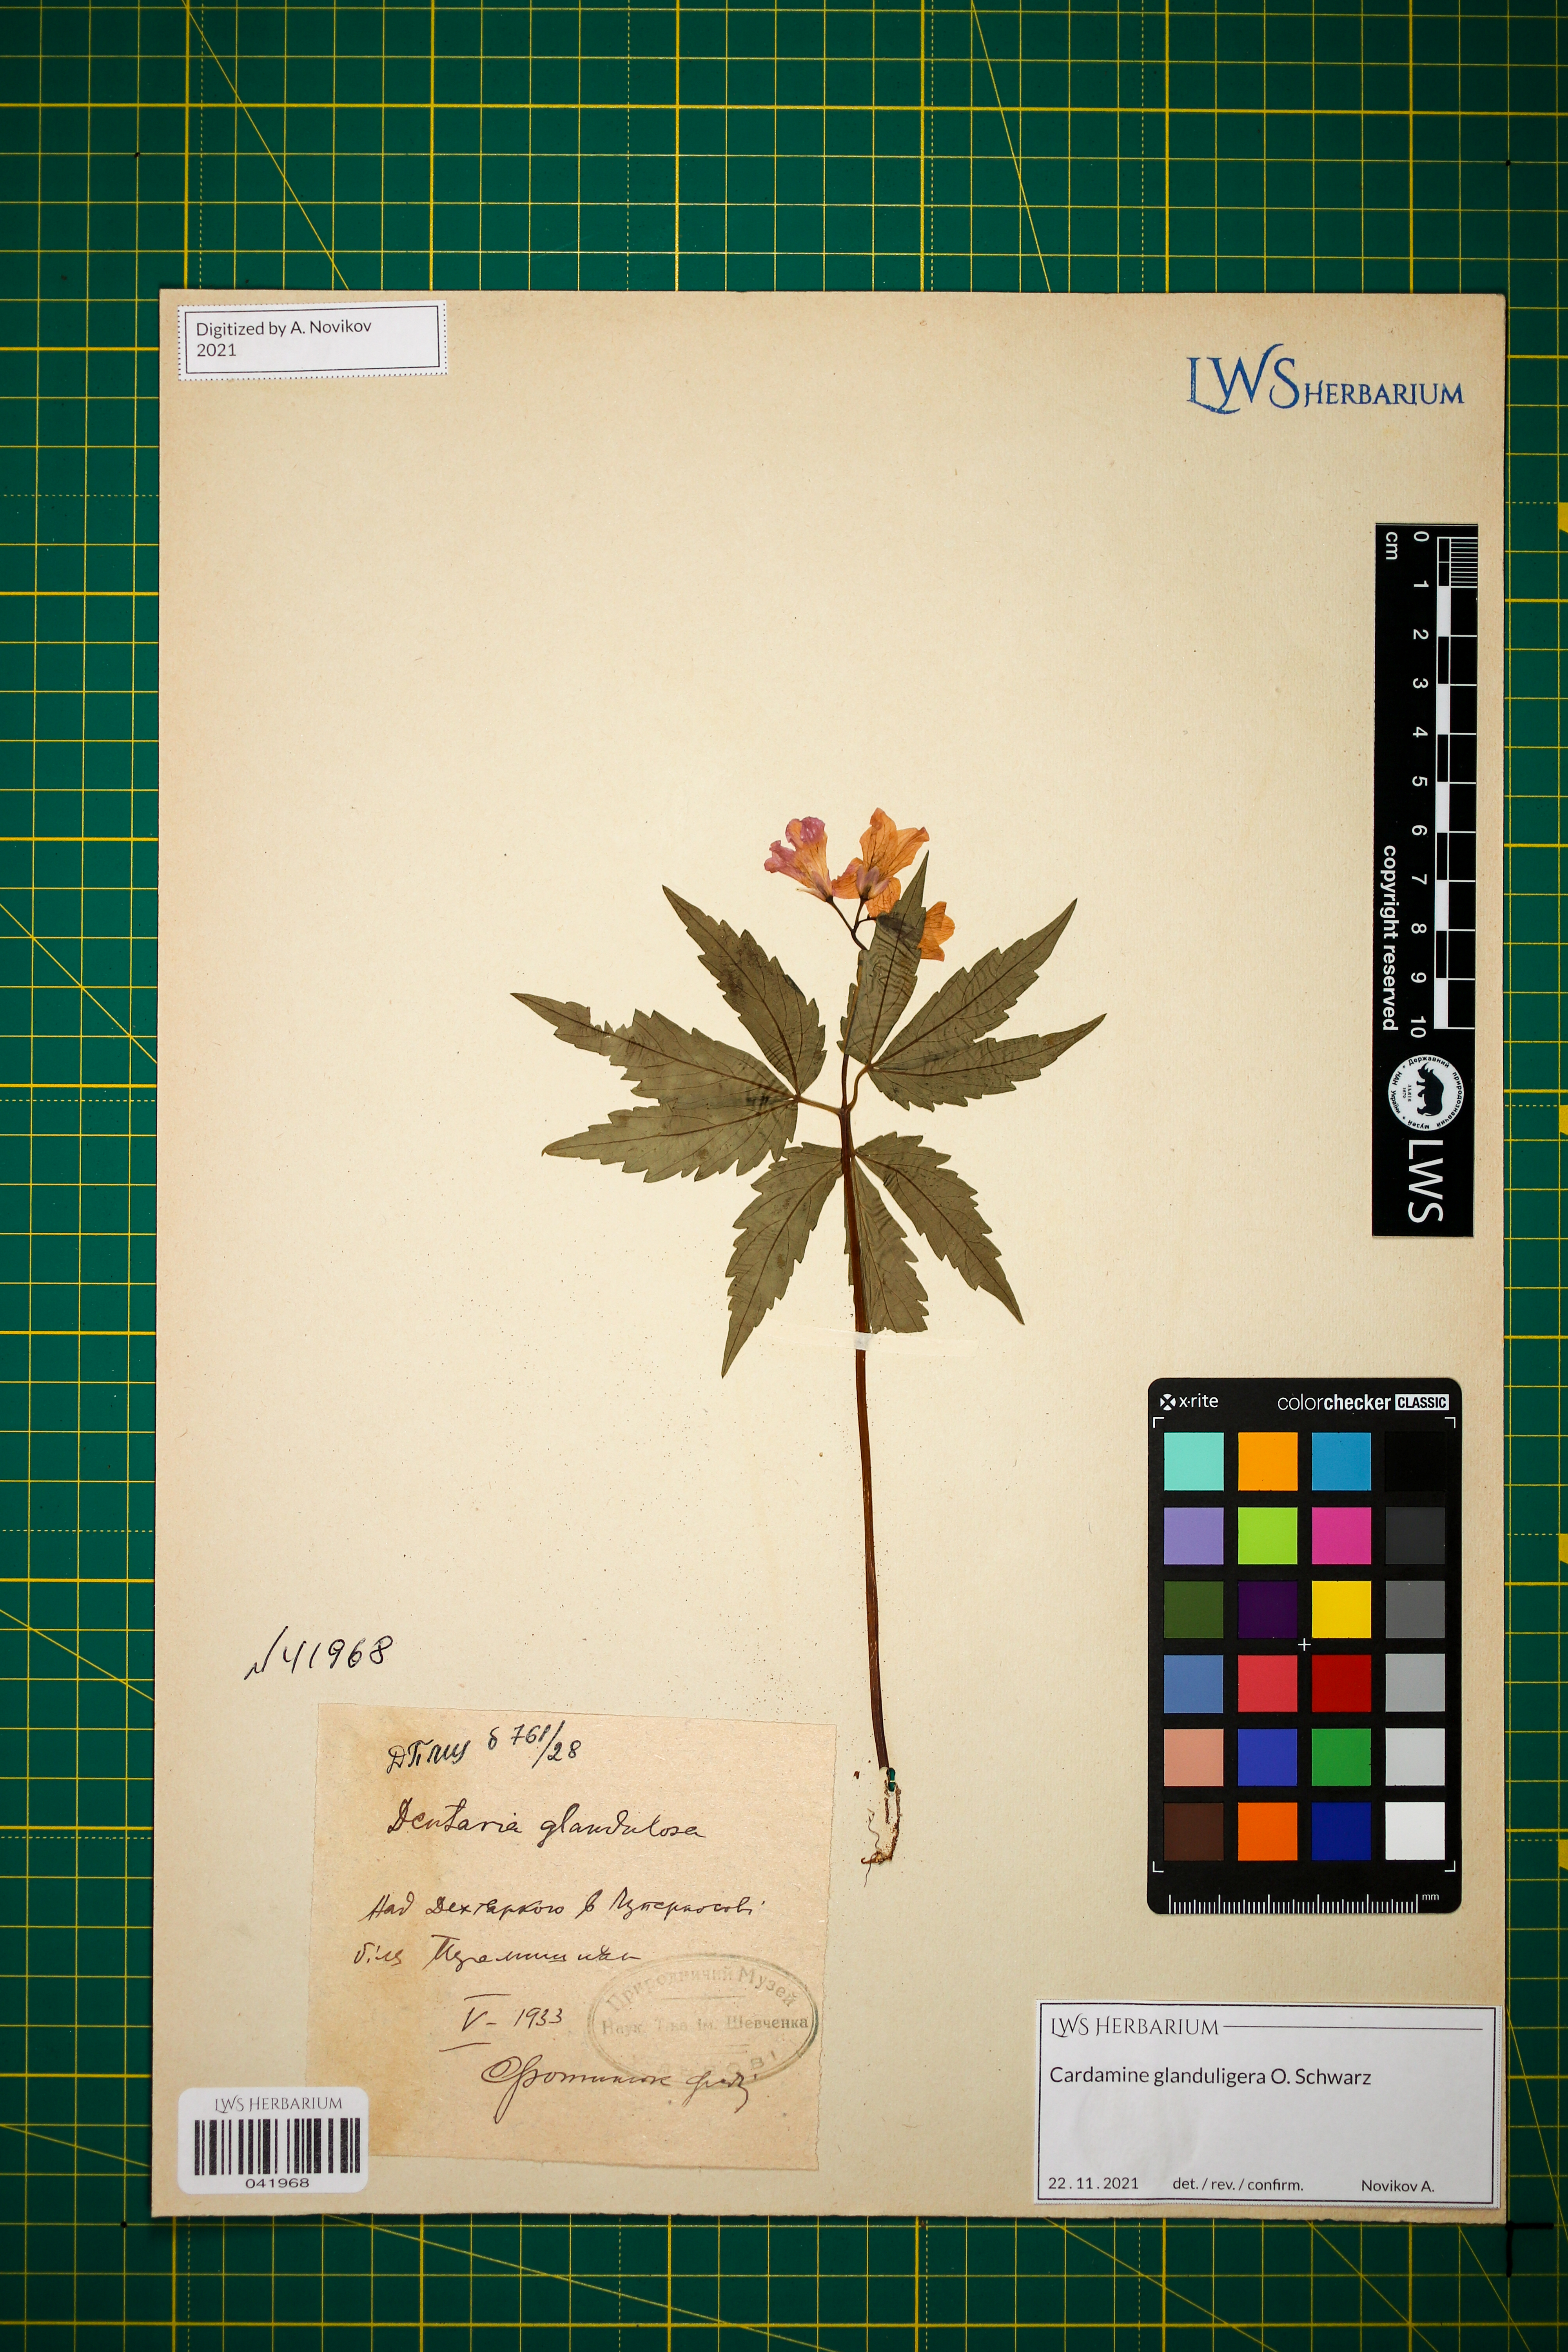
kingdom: Plantae
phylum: Tracheophyta
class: Magnoliopsida
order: Brassicales
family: Brassicaceae
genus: Cardamine
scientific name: Cardamine glanduligera
